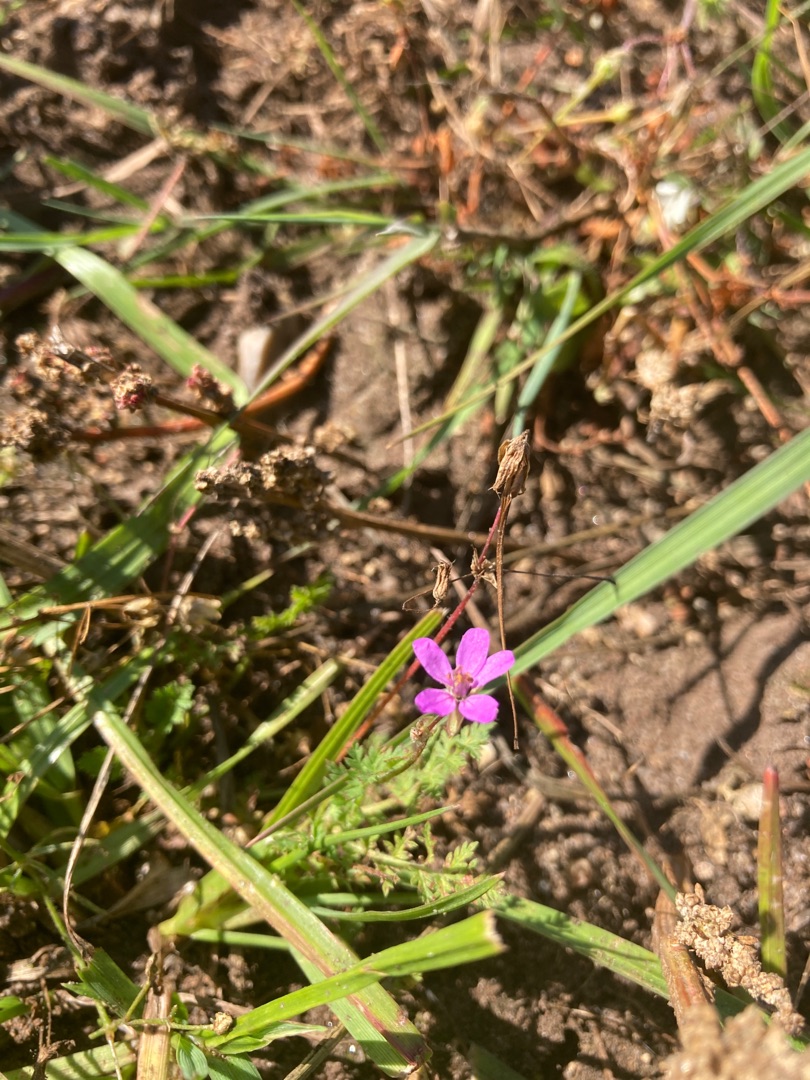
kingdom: Plantae
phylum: Tracheophyta
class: Magnoliopsida
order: Geraniales
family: Geraniaceae
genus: Erodium
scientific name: Erodium cicutarium
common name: Hejrenæb
